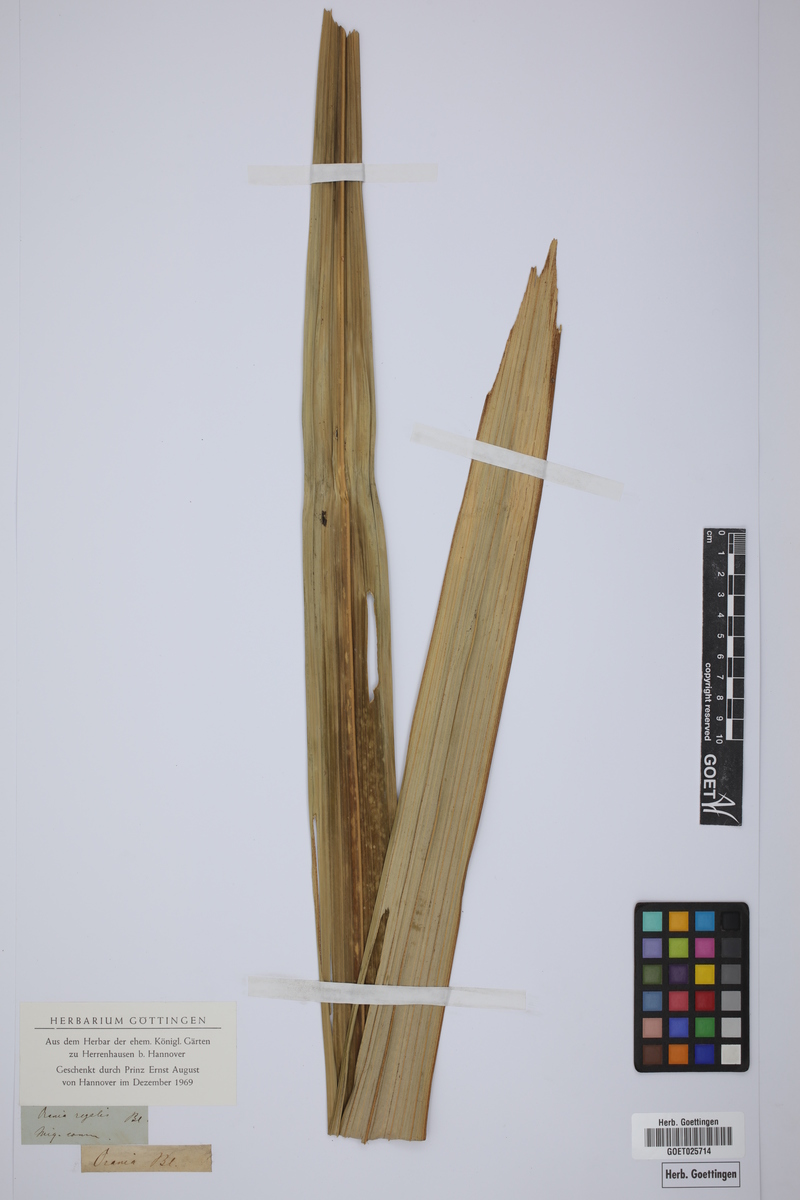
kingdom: Plantae
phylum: Tracheophyta
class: Liliopsida
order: Arecales
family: Arecaceae
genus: Orania
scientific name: Orania regalis
